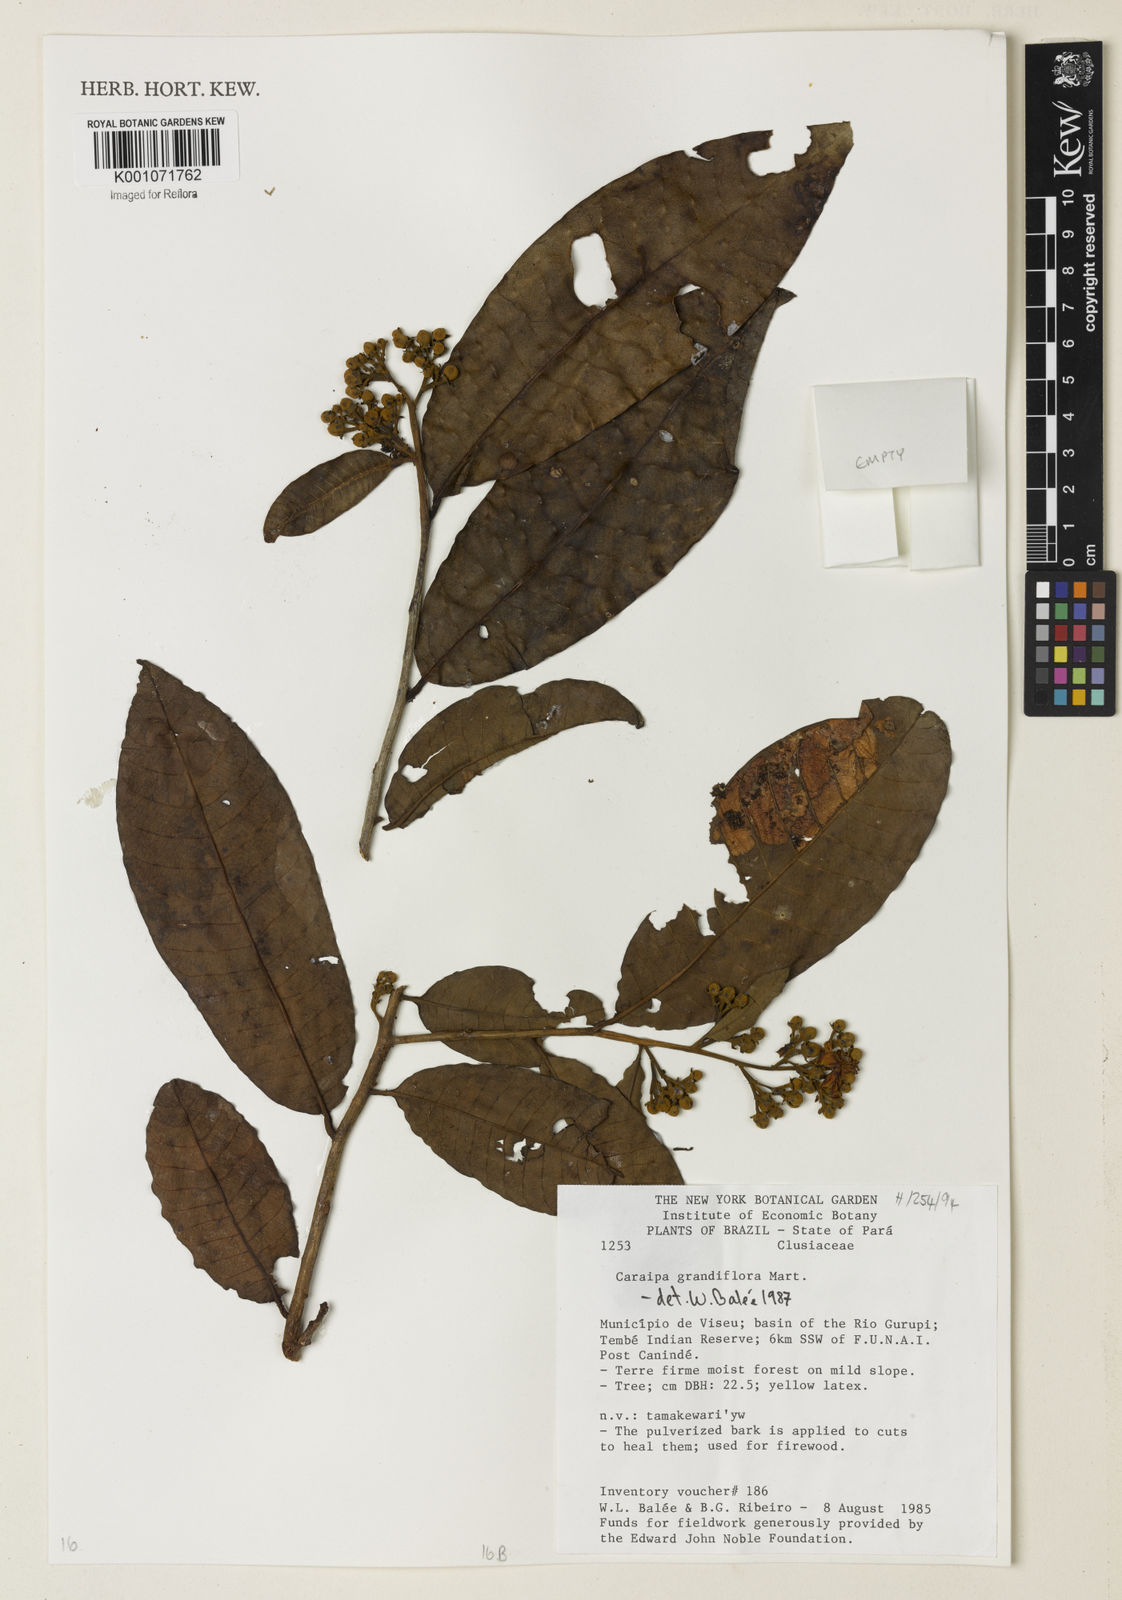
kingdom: Plantae
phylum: Tracheophyta
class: Magnoliopsida
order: Malpighiales
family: Calophyllaceae
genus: Caraipa
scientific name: Caraipa grandifolia
